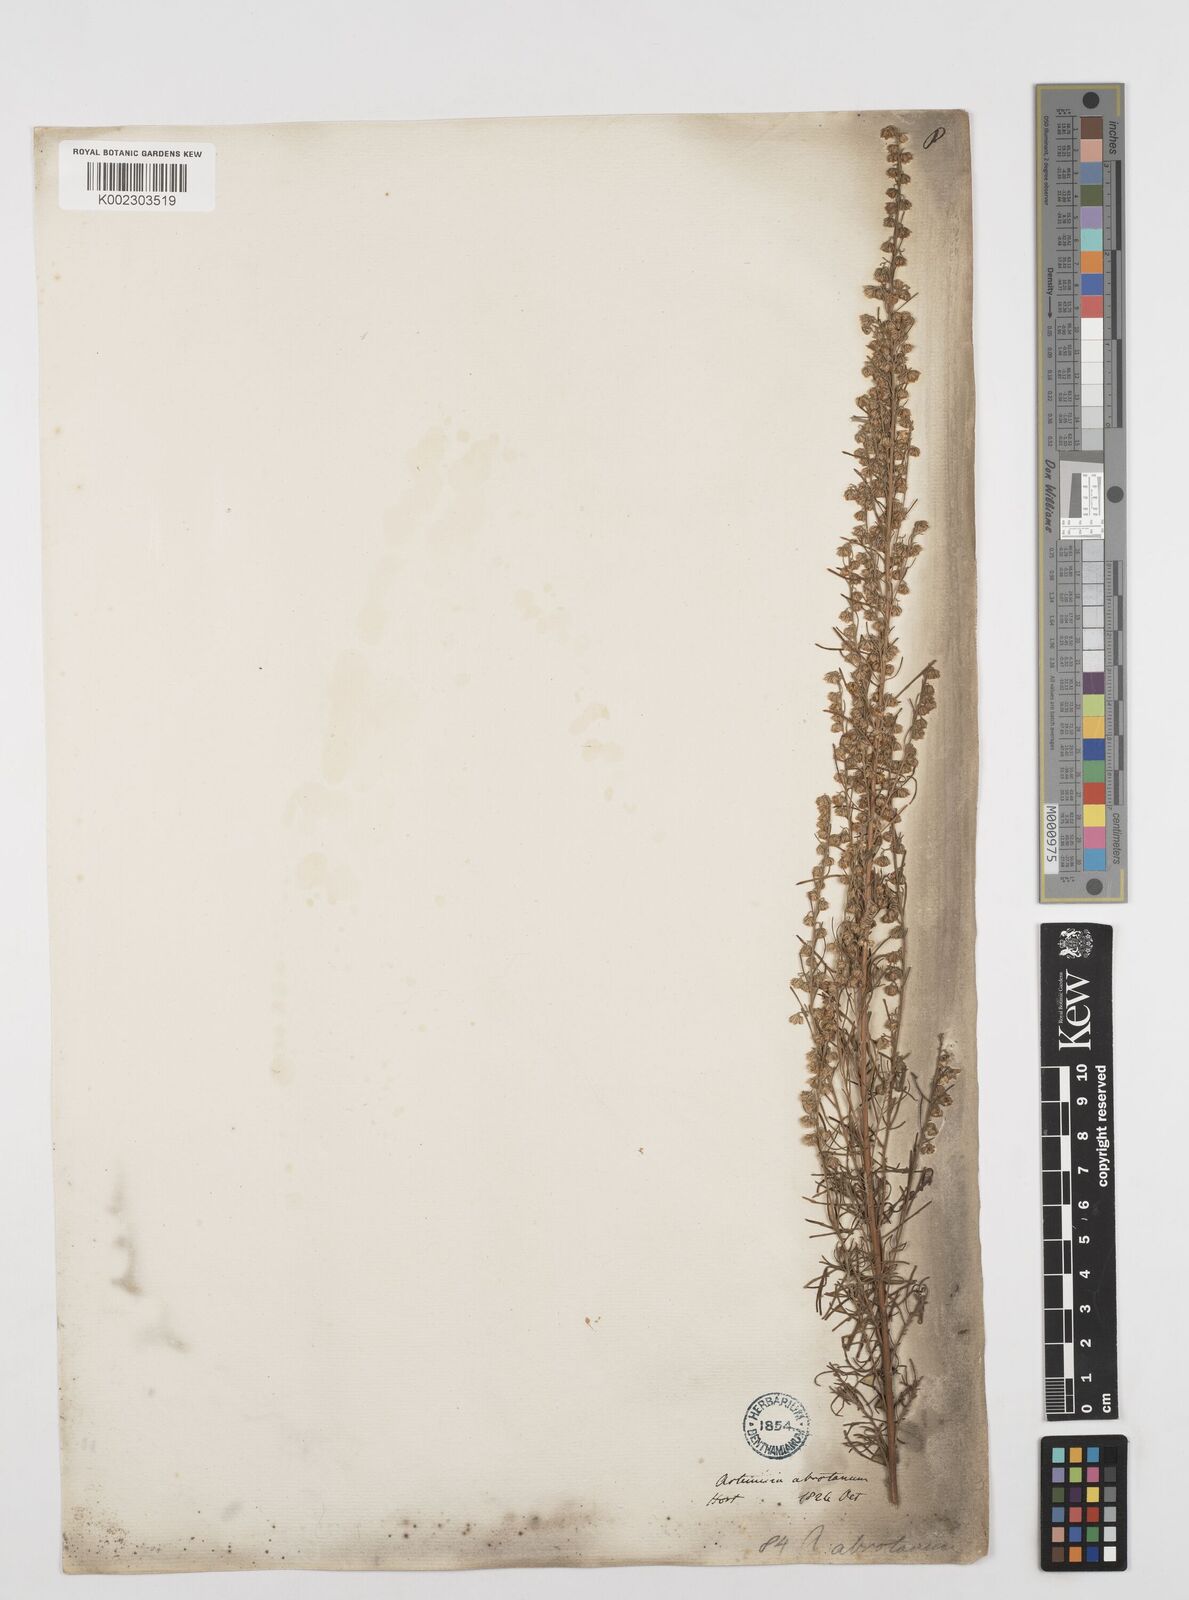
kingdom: Plantae
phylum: Tracheophyta
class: Magnoliopsida
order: Asterales
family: Asteraceae
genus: Artemisia
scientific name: Artemisia abrotanum
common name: Southernwood
